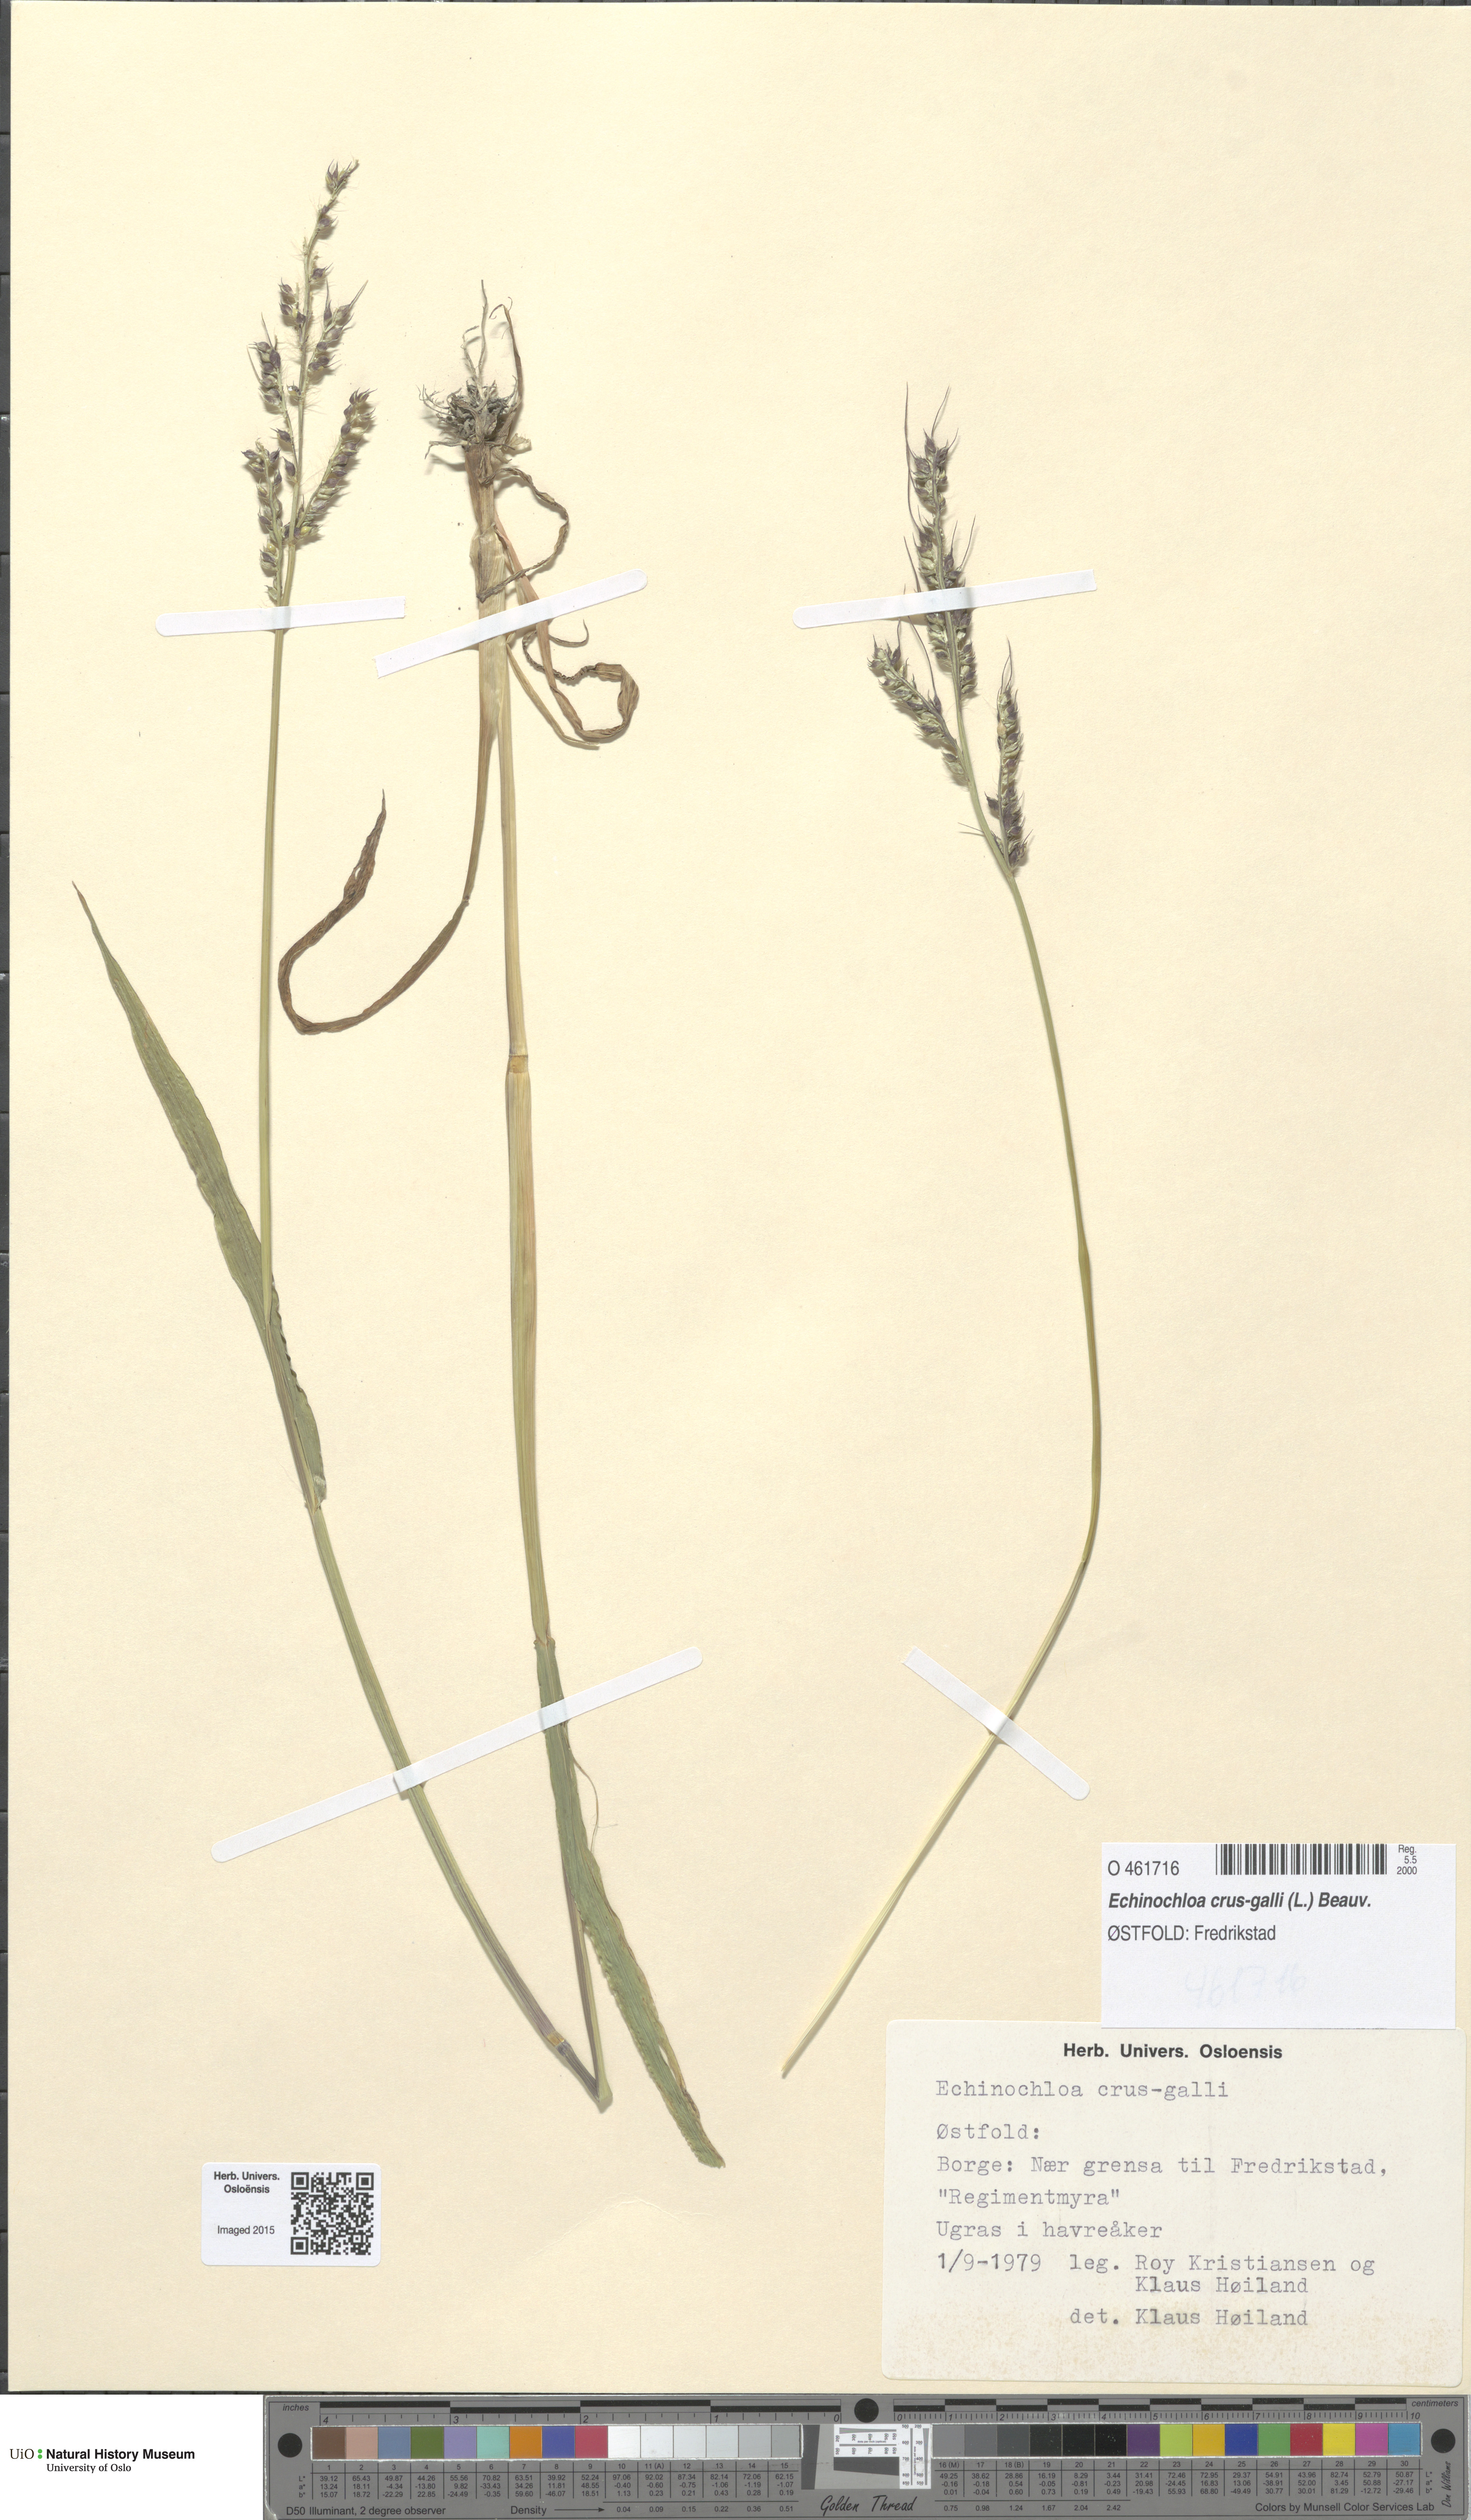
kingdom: Plantae
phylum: Tracheophyta
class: Liliopsida
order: Poales
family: Poaceae
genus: Echinochloa
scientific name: Echinochloa crus-galli
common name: Cockspur
